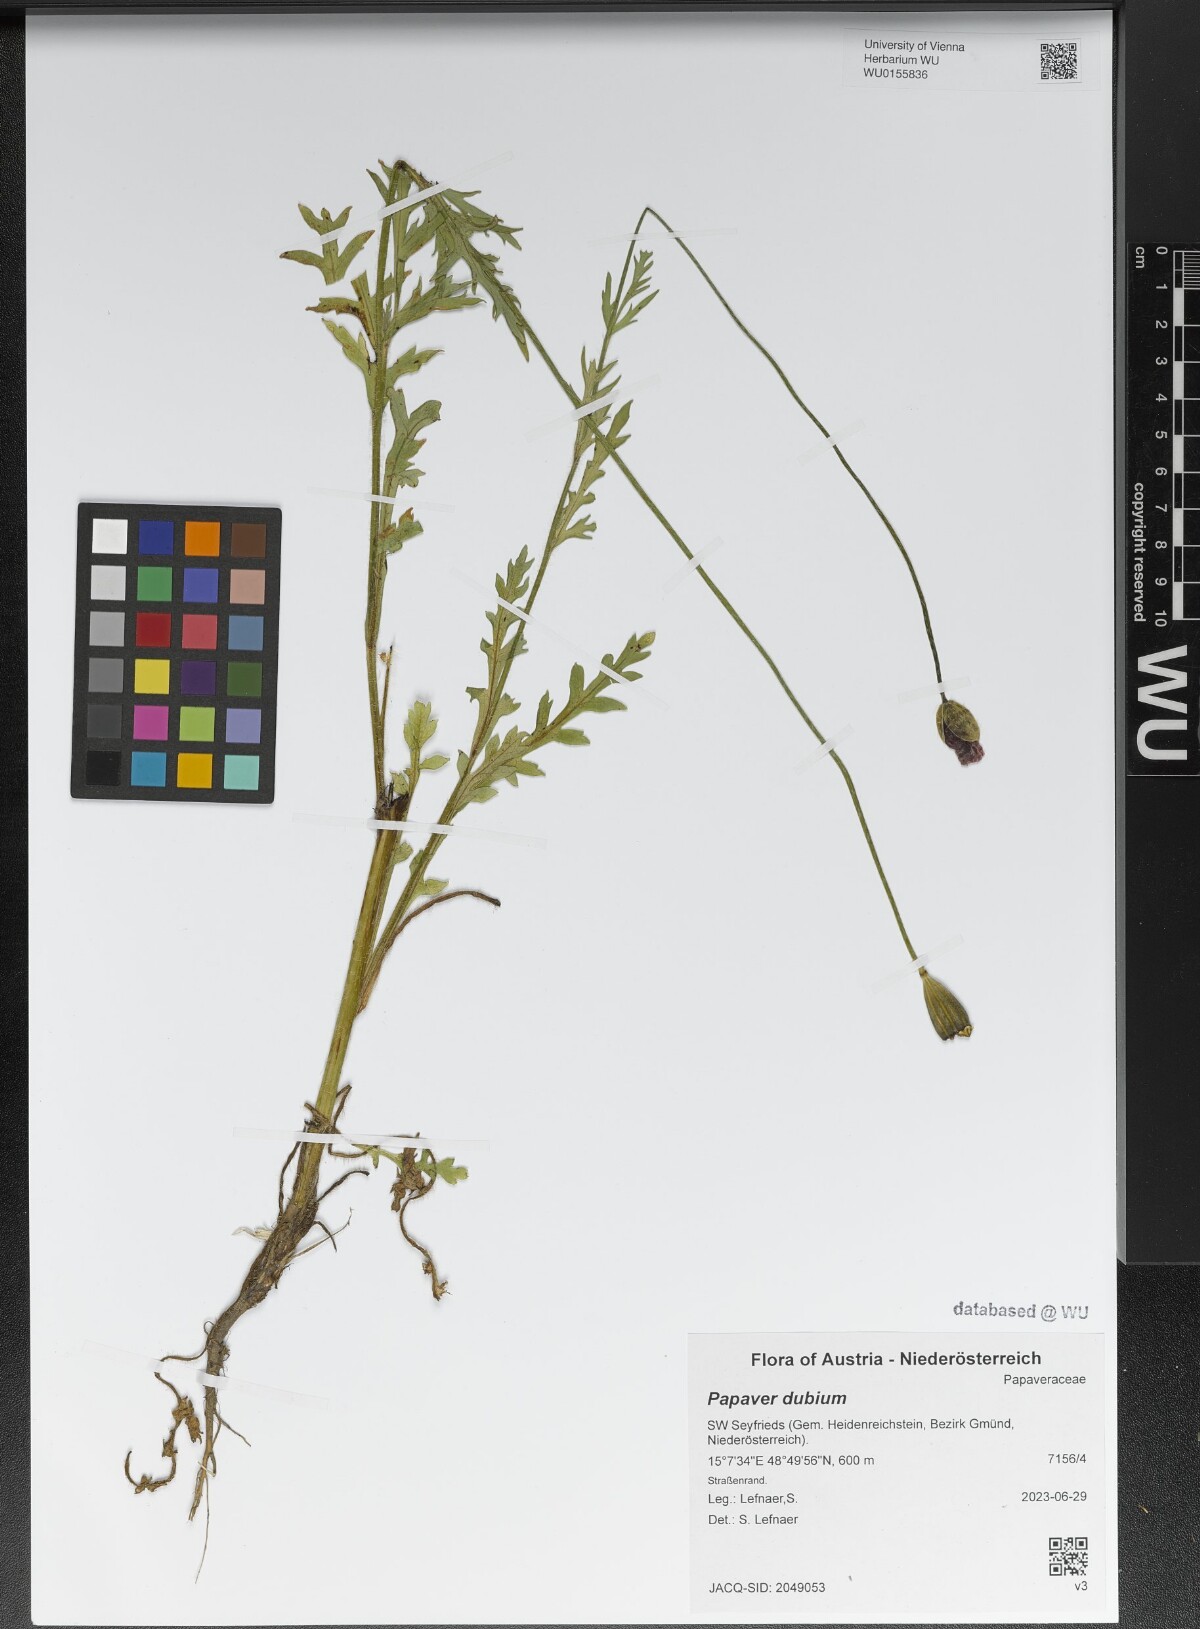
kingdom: Plantae
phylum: Tracheophyta
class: Magnoliopsida
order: Ranunculales
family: Papaveraceae
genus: Papaver
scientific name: Papaver dubium
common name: Long-headed poppy
